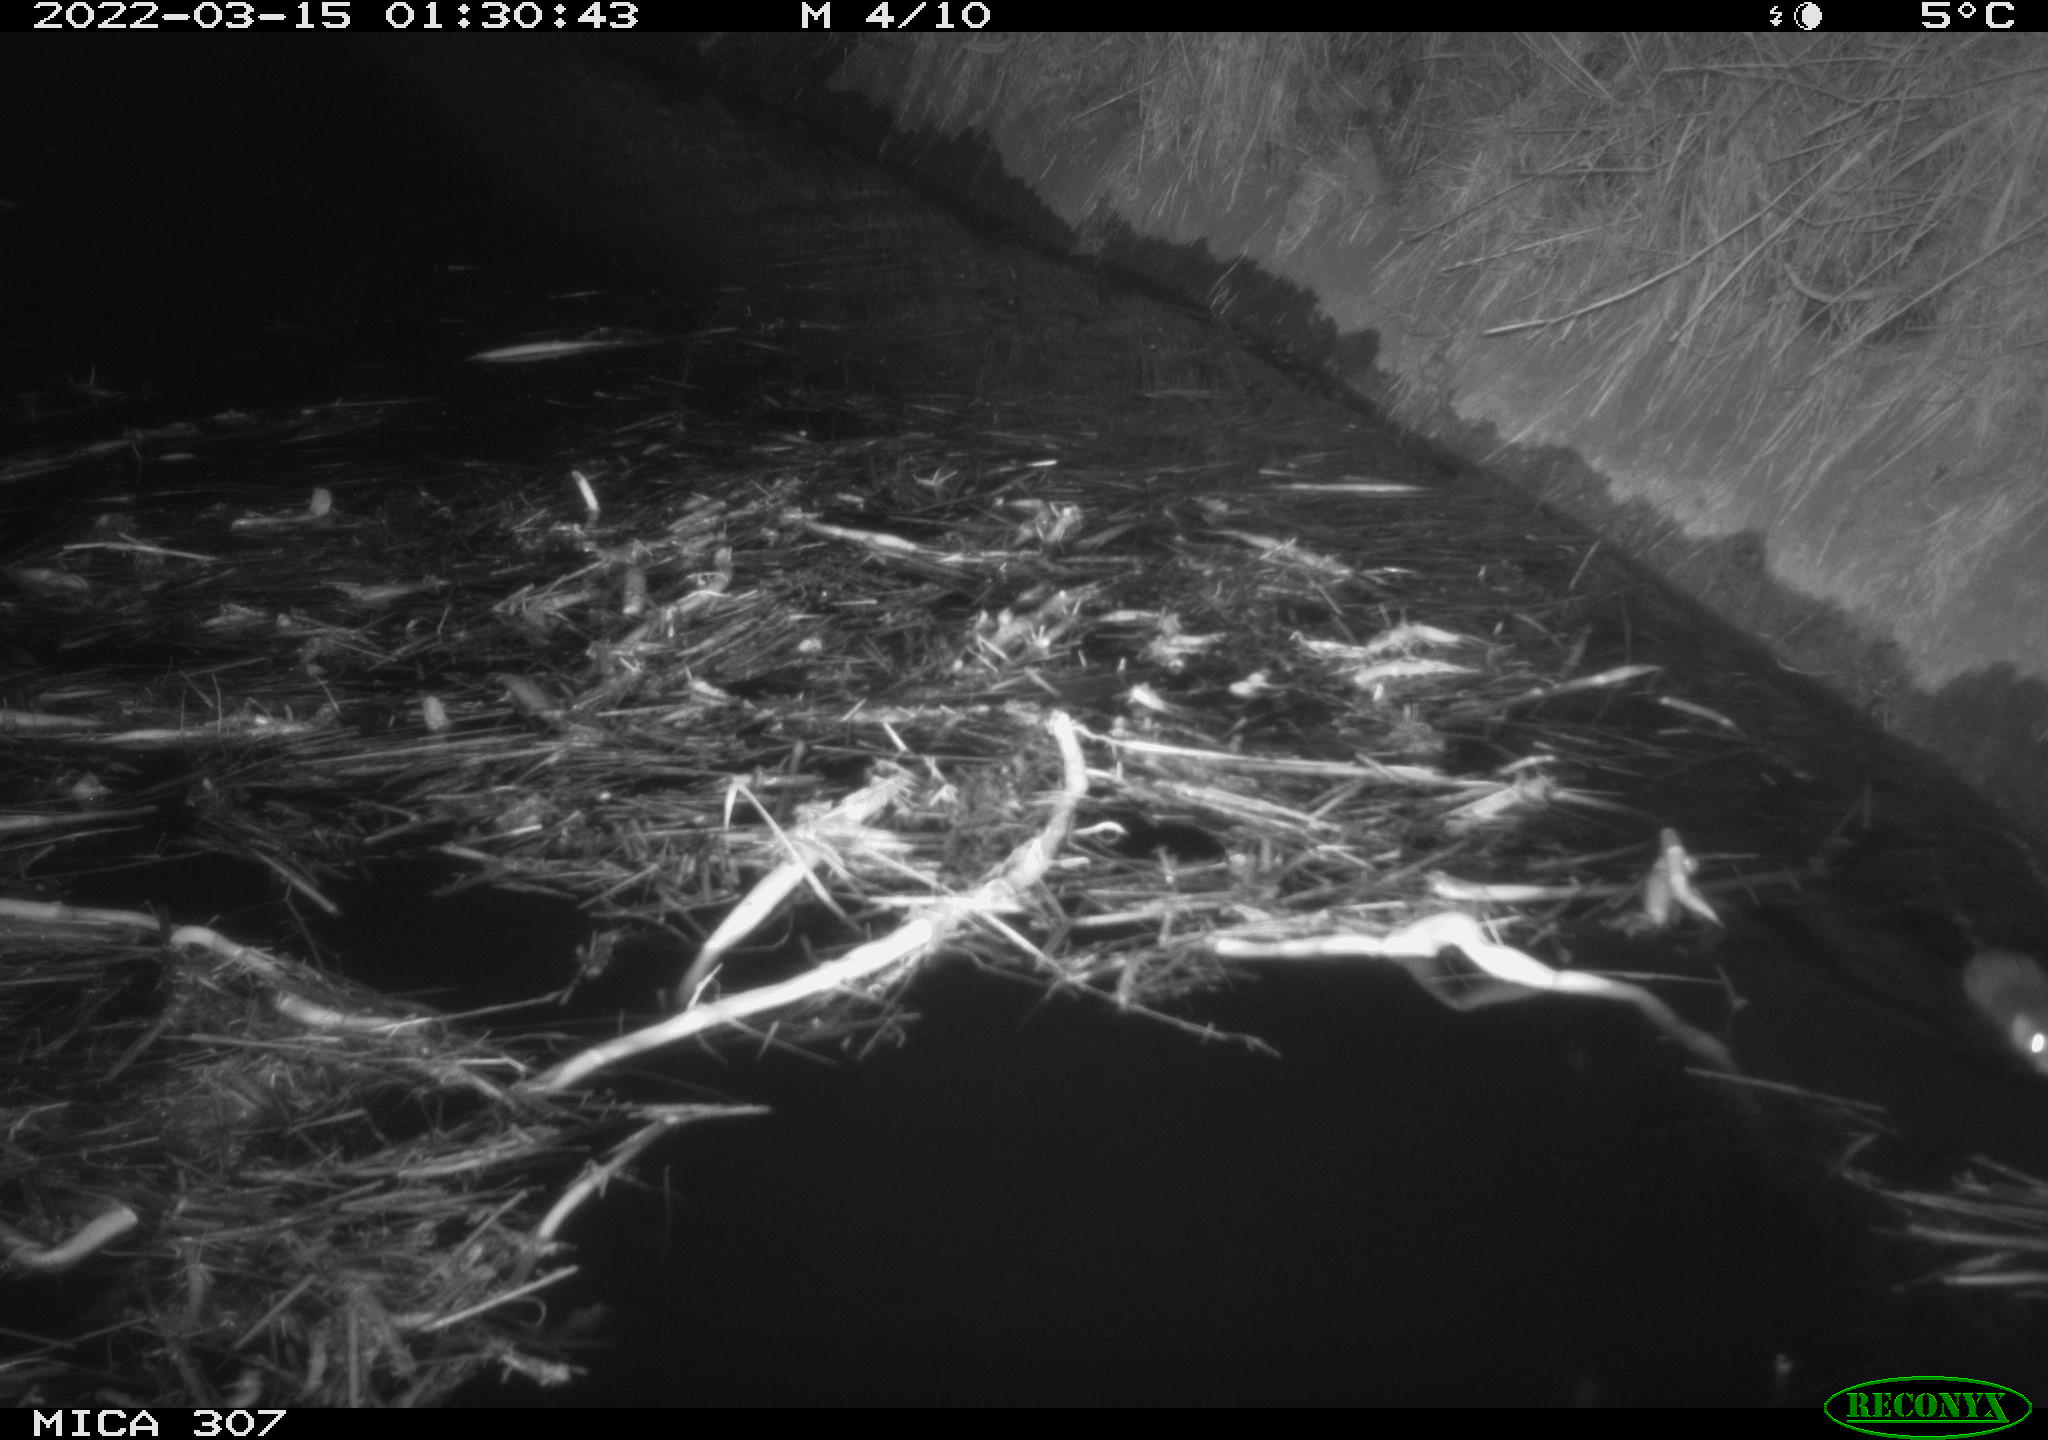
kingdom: Animalia
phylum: Chordata
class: Mammalia
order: Rodentia
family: Muridae
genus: Rattus
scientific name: Rattus norvegicus
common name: Brown rat
